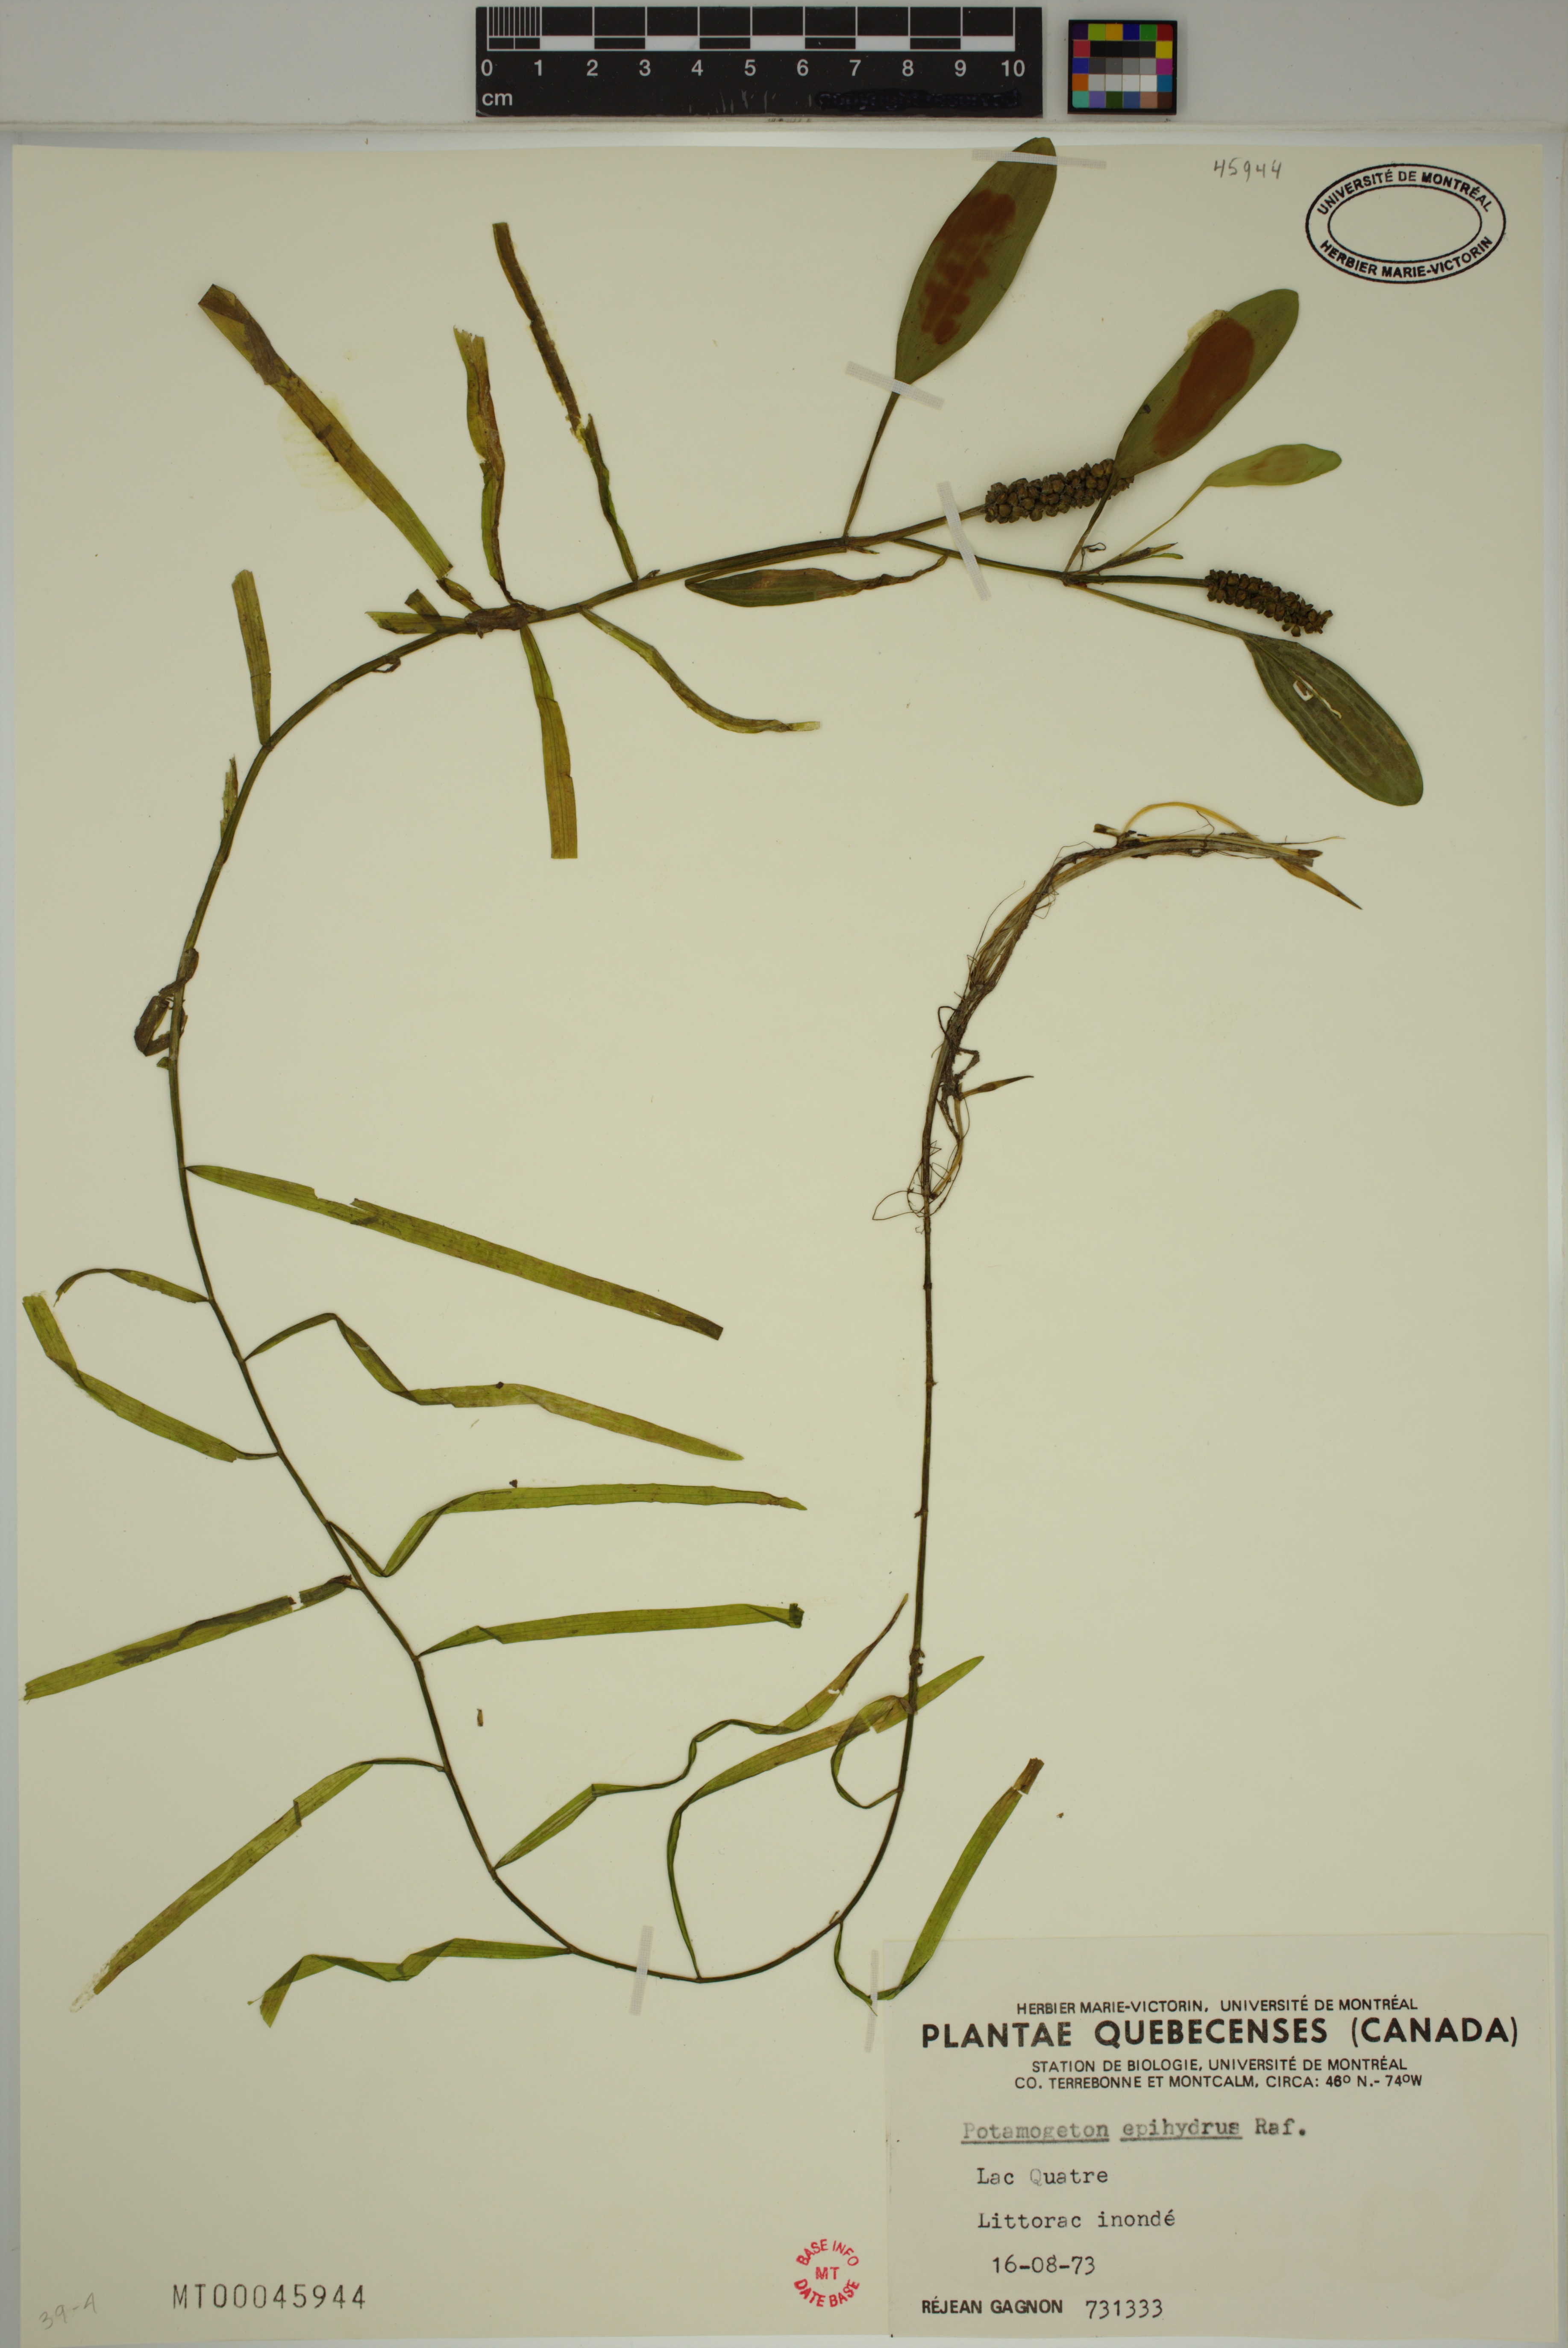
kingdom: Plantae
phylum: Tracheophyta
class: Liliopsida
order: Alismatales
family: Potamogetonaceae
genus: Potamogeton
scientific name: Potamogeton epihydrus
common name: American pondweed
